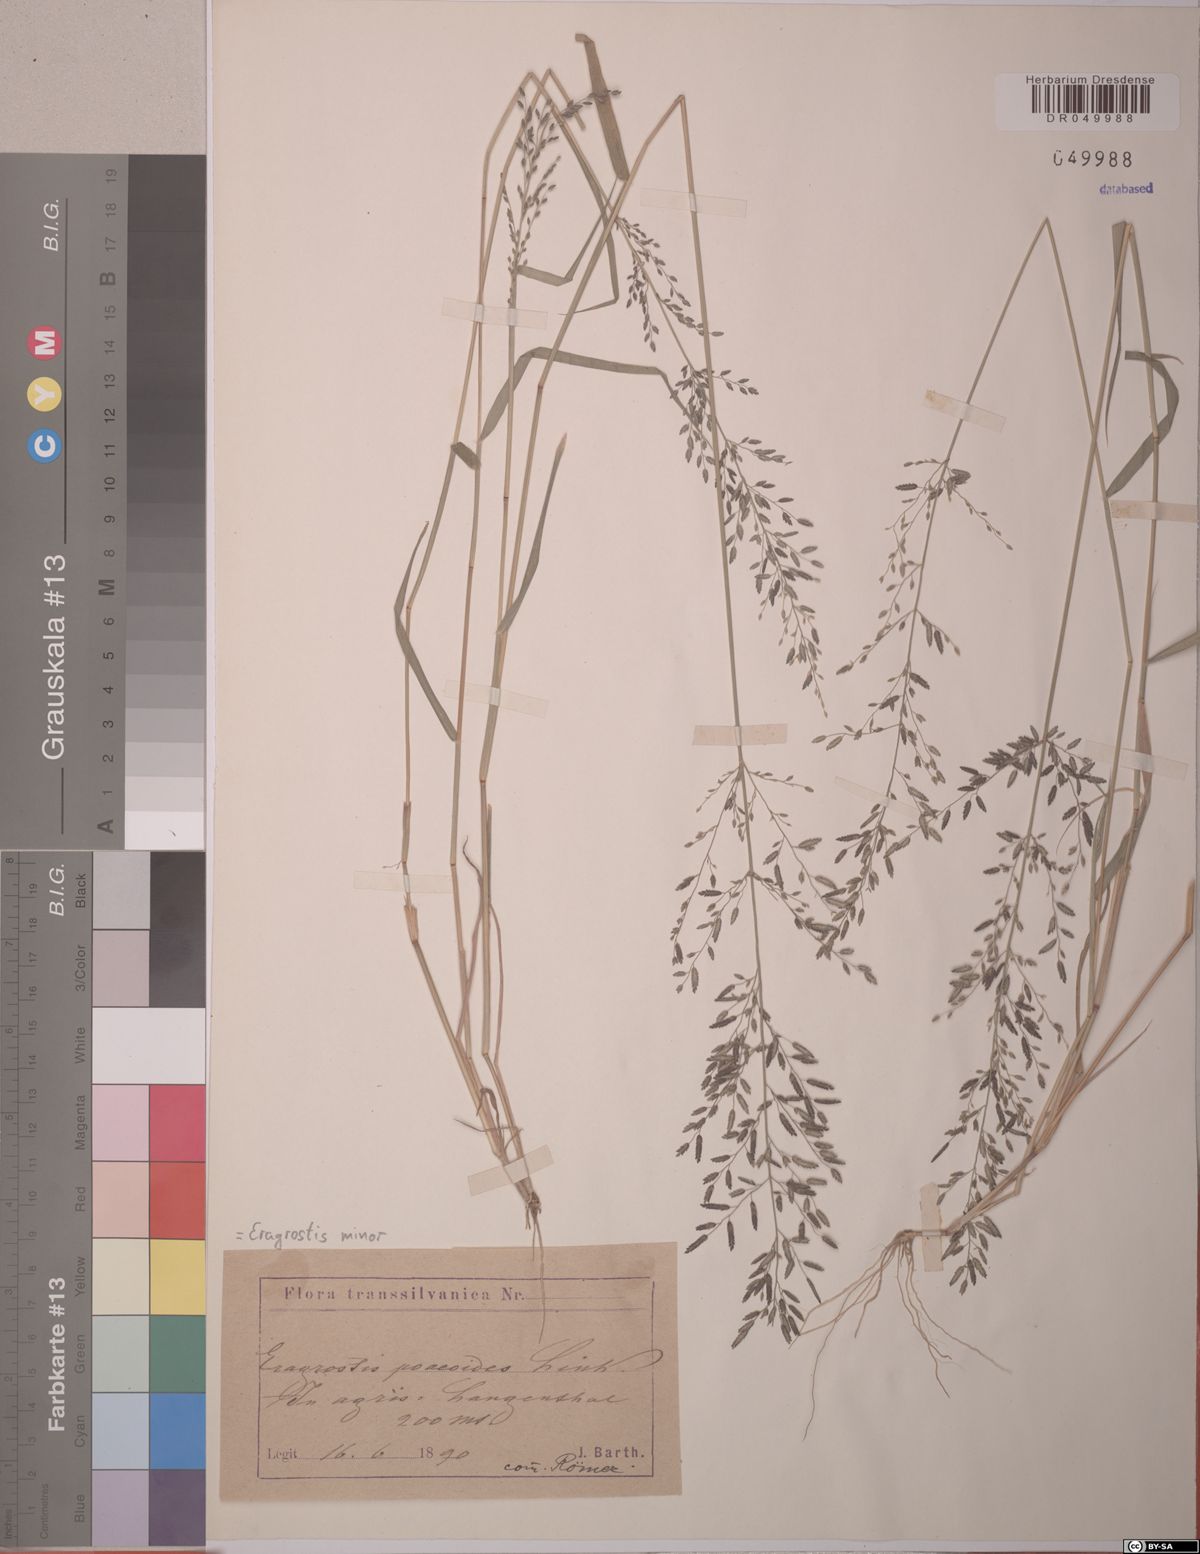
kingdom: Plantae
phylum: Tracheophyta
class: Liliopsida
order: Poales
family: Poaceae
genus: Eragrostis
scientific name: Eragrostis minor
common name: Small love-grass
